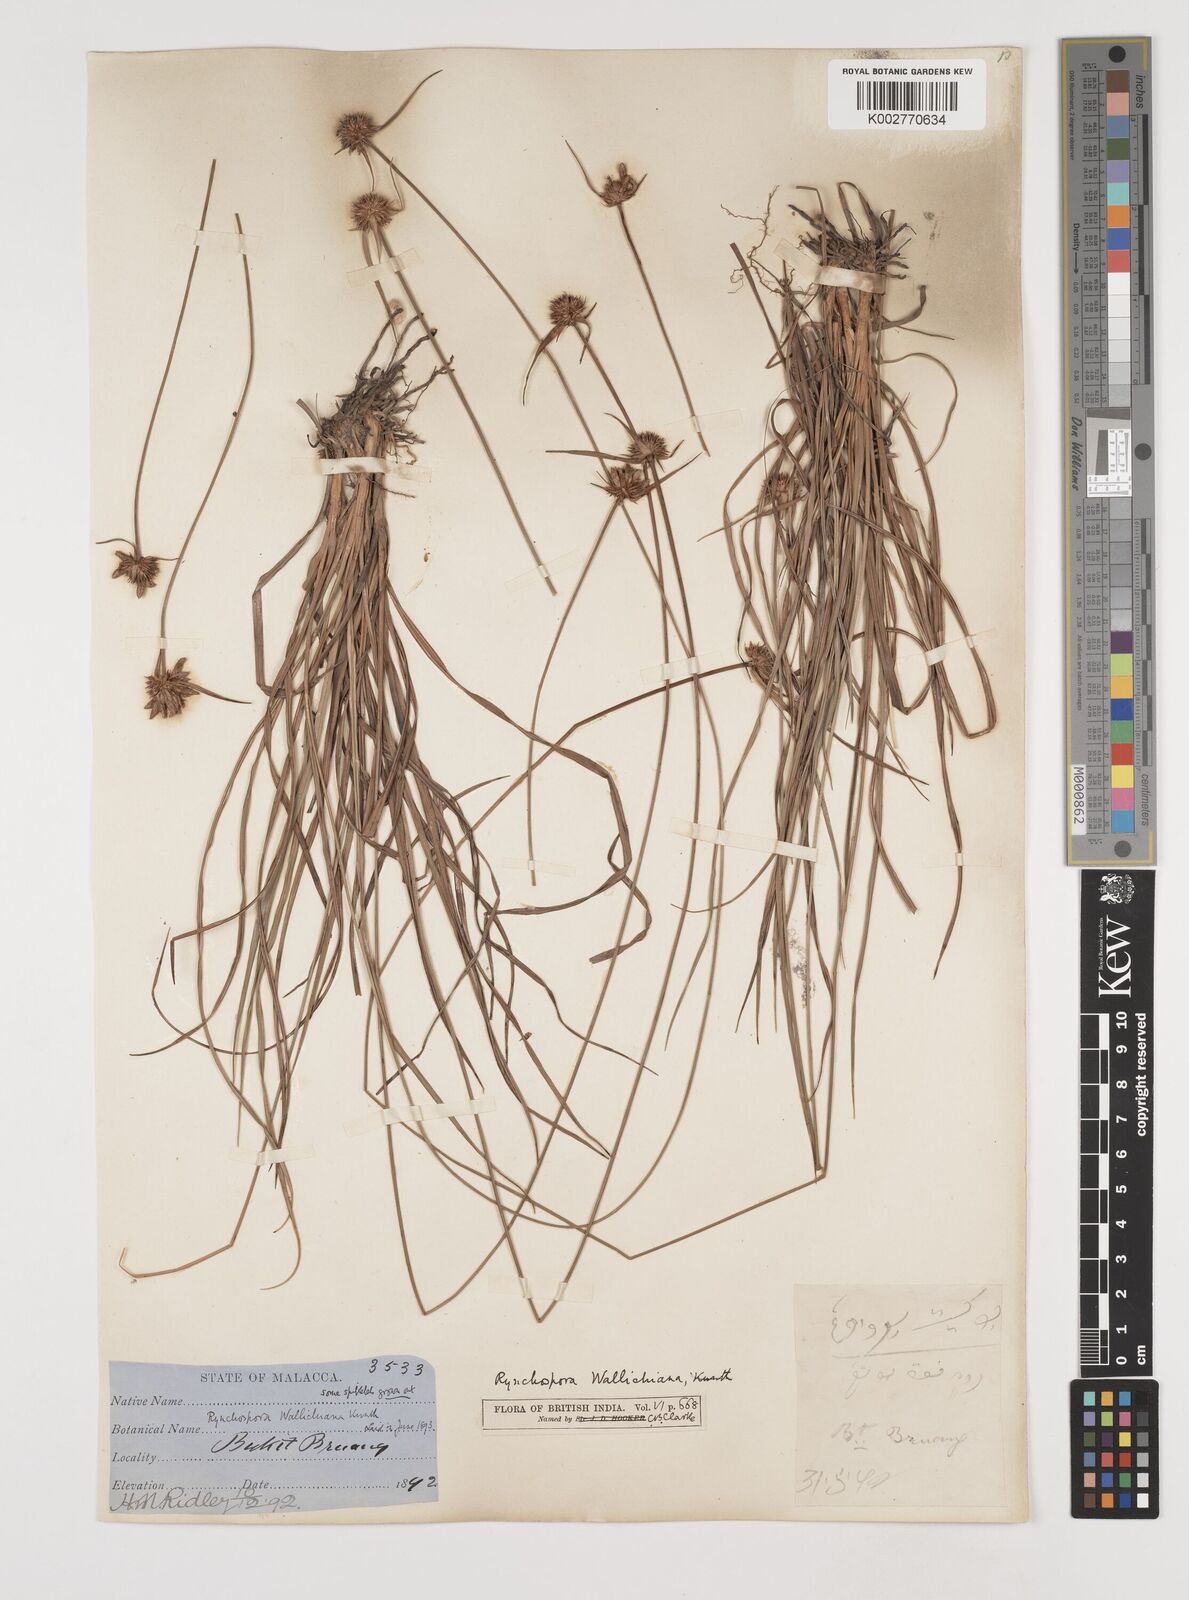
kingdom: Plantae
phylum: Tracheophyta
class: Liliopsida
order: Poales
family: Cyperaceae
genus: Rhynchospora
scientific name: Rhynchospora rubra
